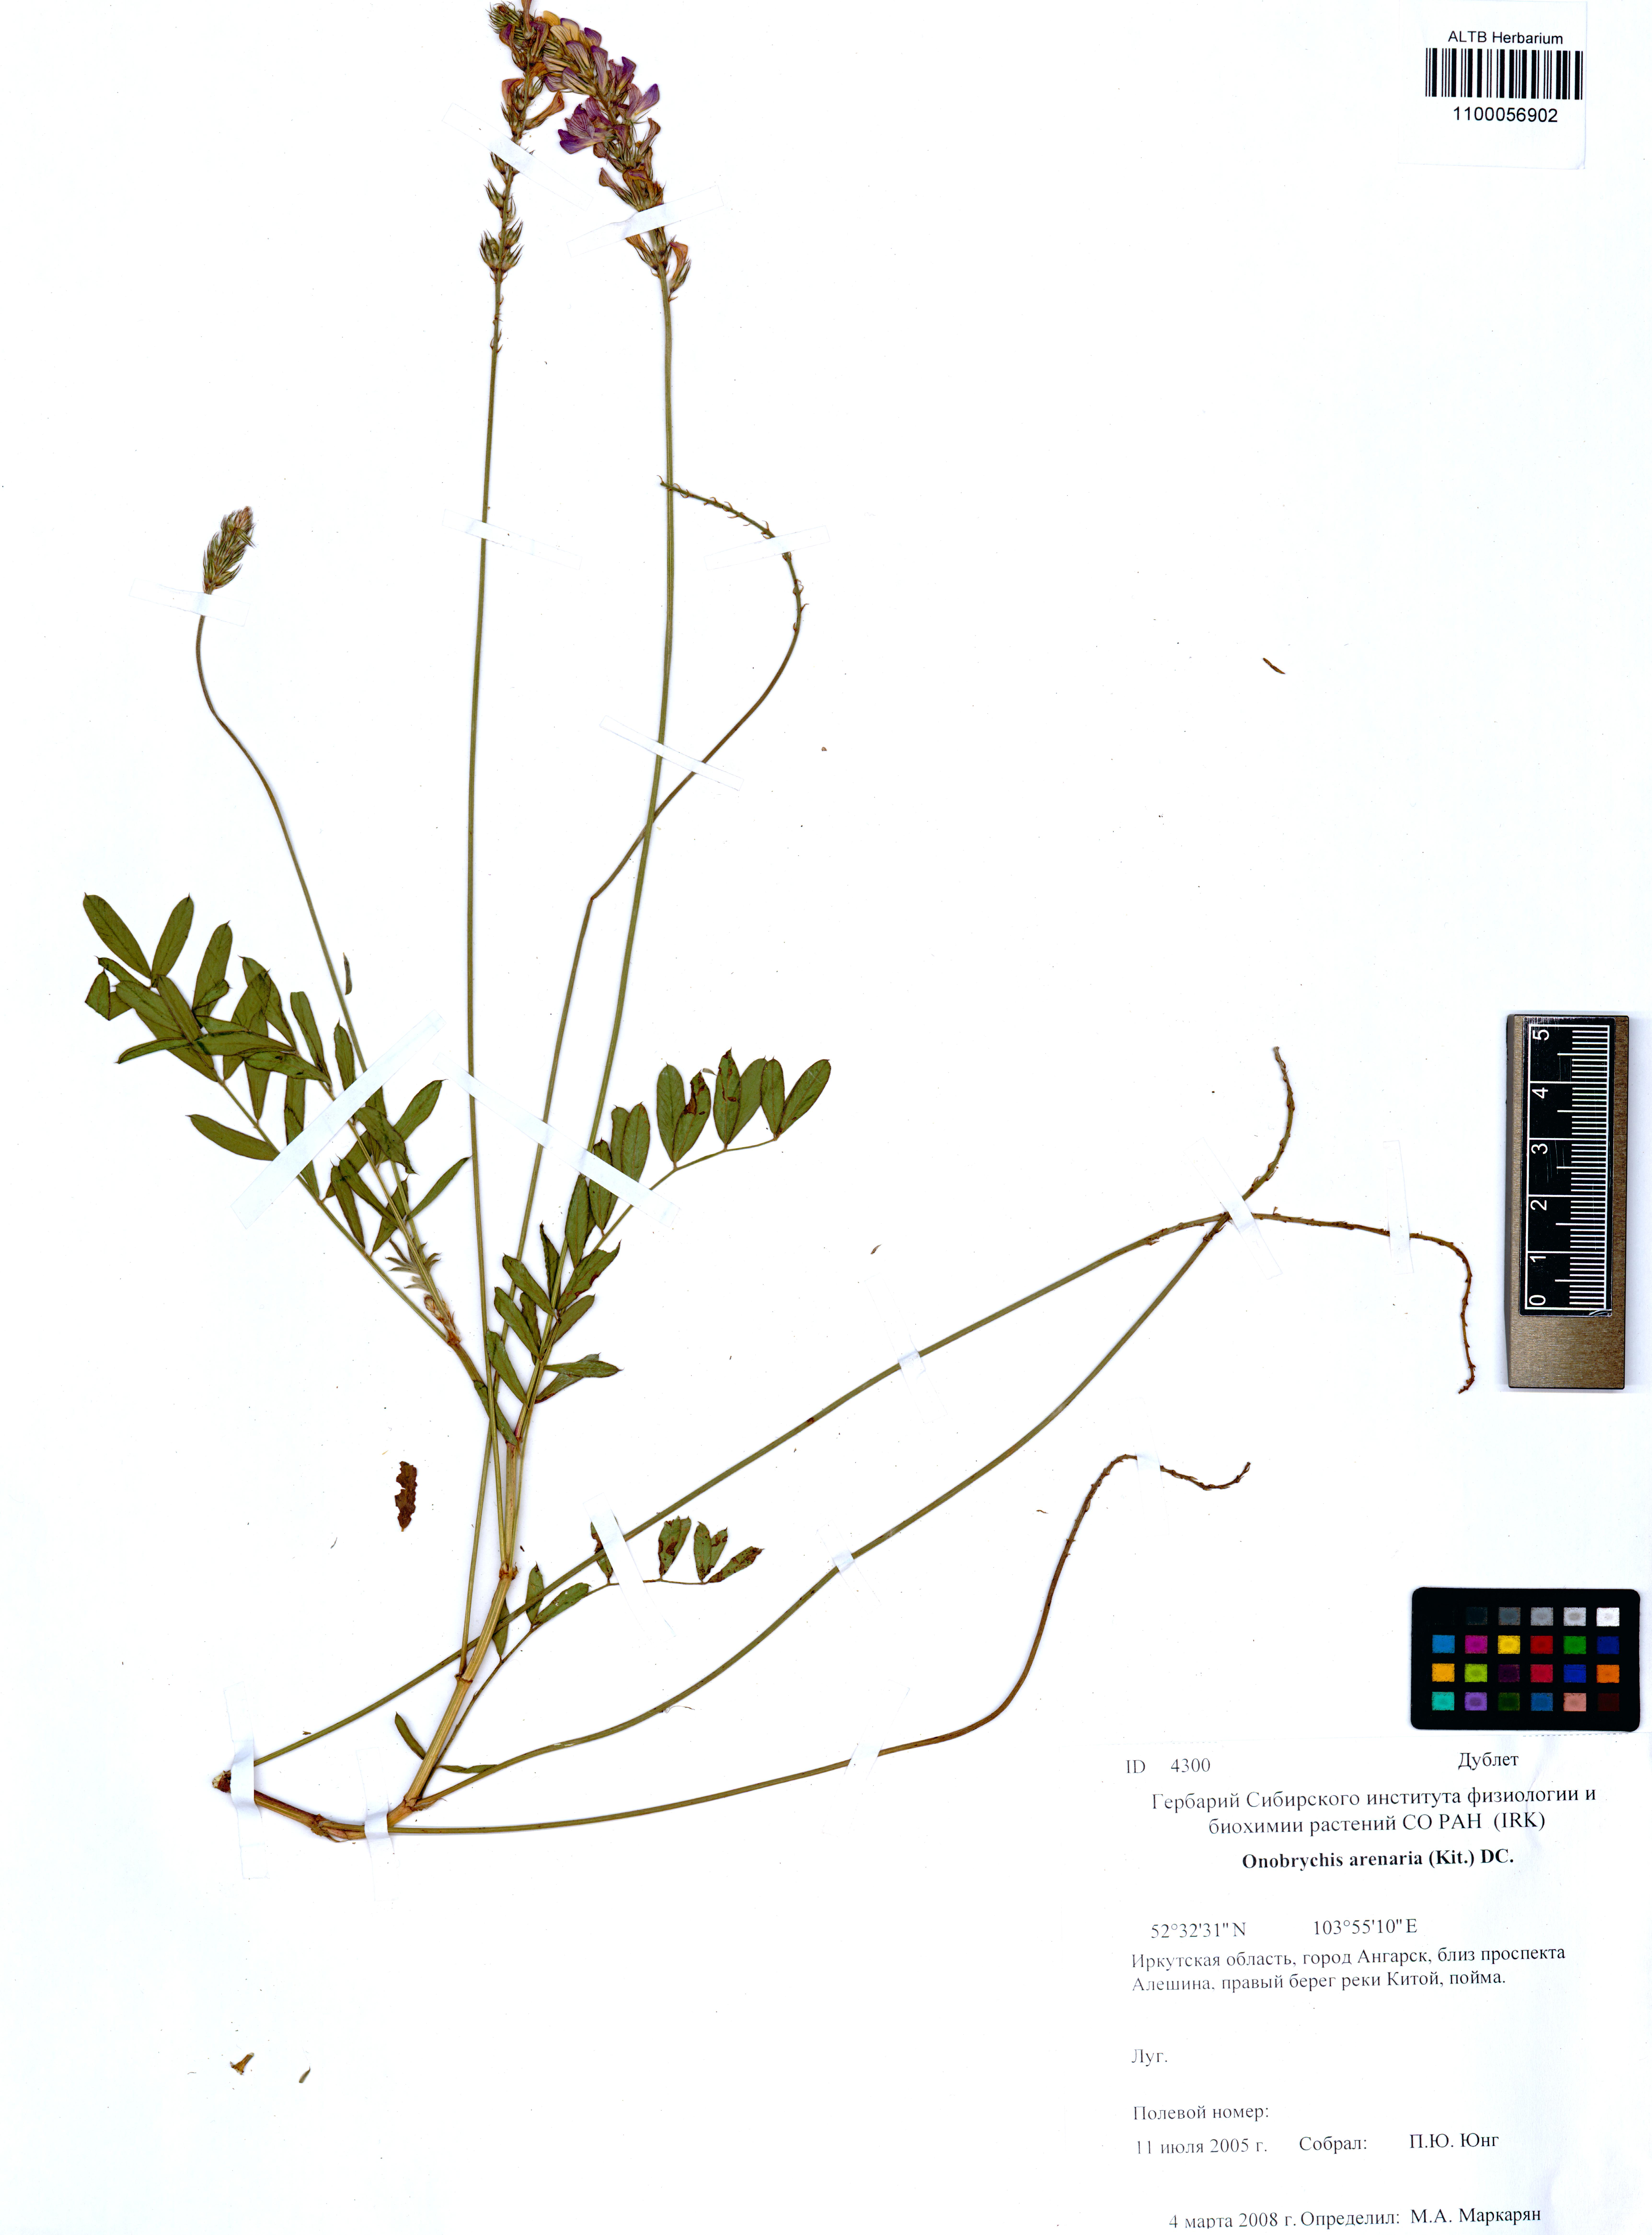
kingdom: Plantae
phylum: Tracheophyta
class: Magnoliopsida
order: Fabales
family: Fabaceae
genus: Onobrychis
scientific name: Onobrychis arenaria
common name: Sand esparcet
